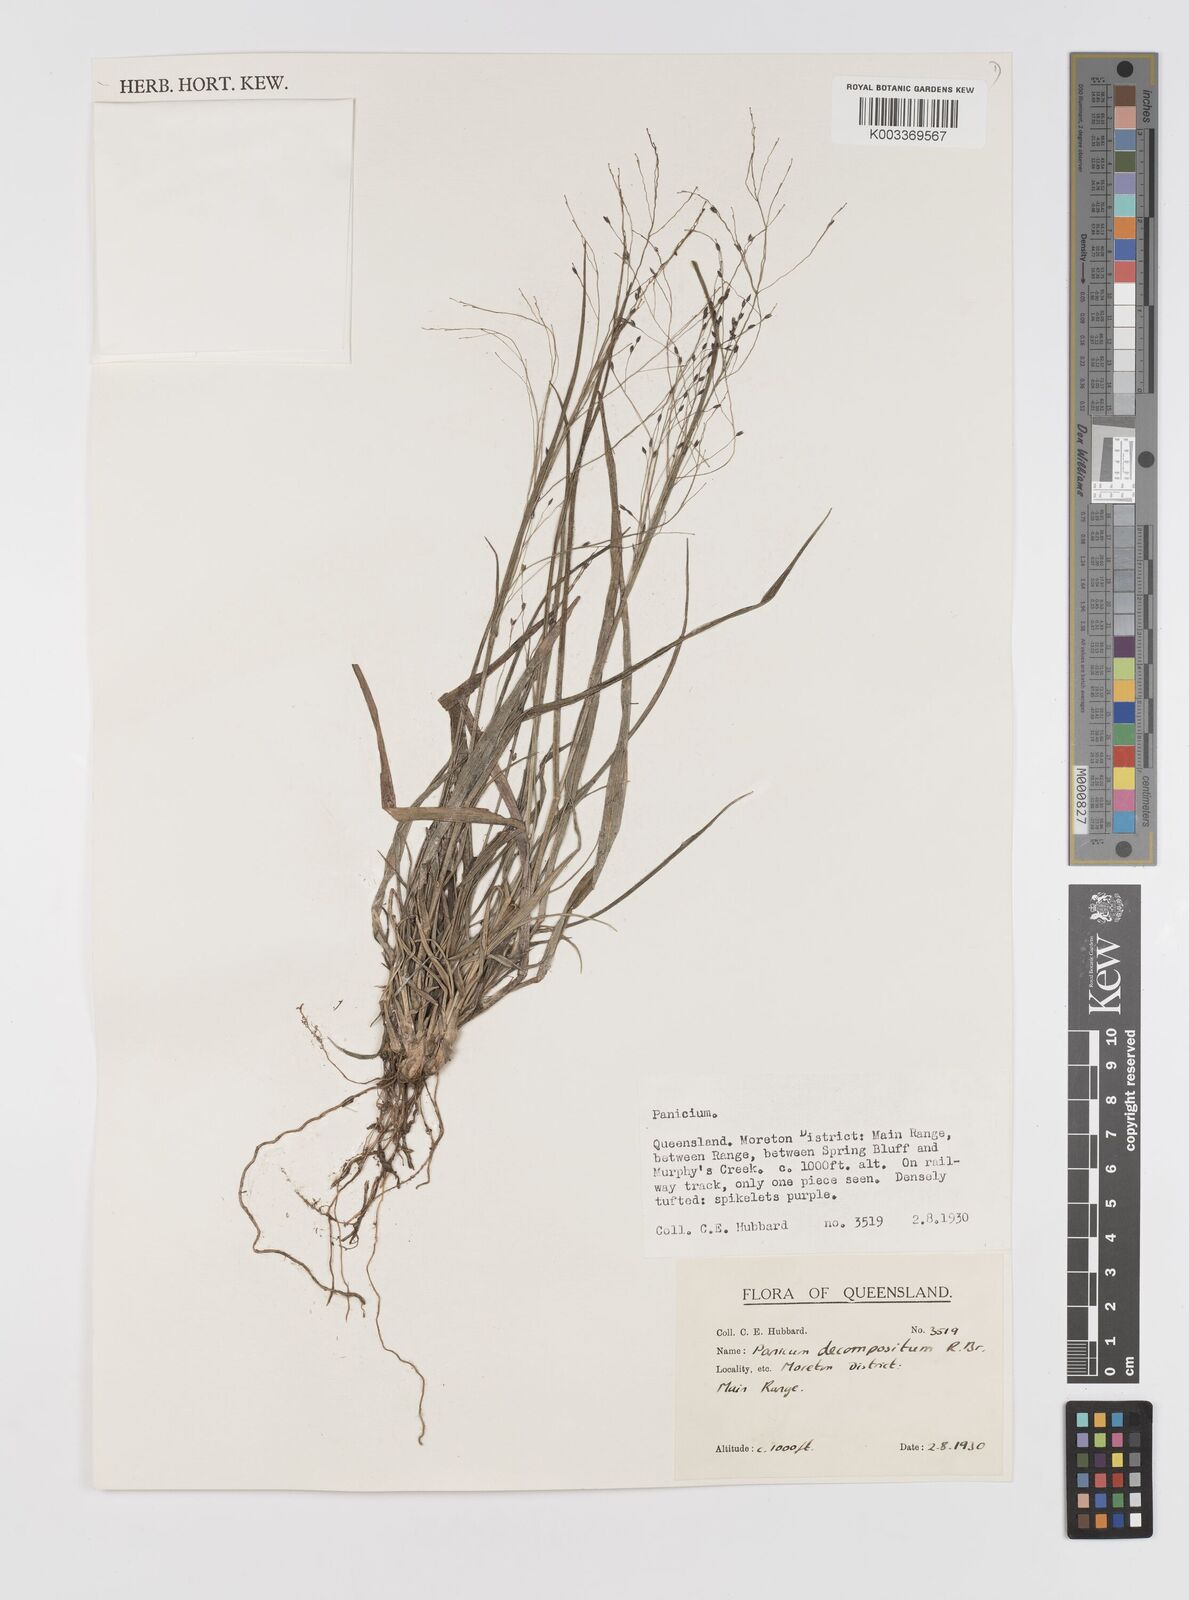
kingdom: Plantae
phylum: Tracheophyta
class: Liliopsida
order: Poales
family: Poaceae
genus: Panicum
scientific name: Panicum decompositum
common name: Australian millet
